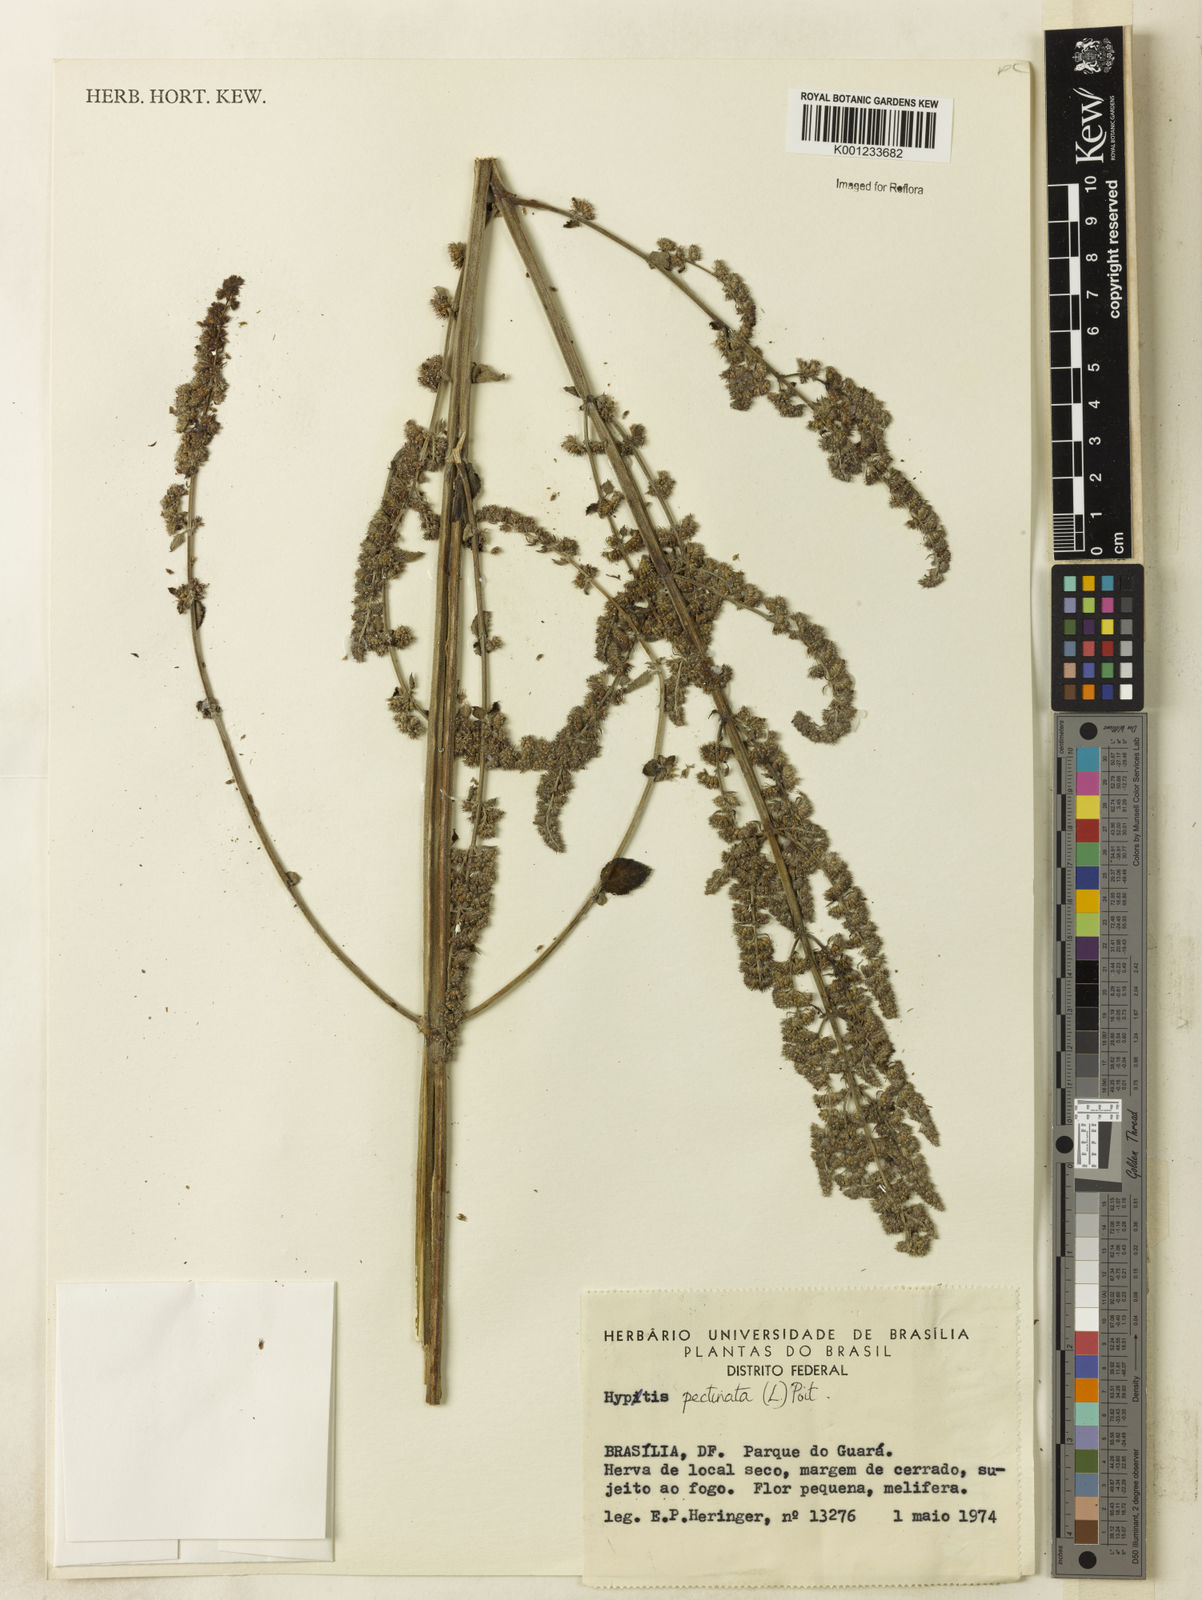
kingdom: Plantae
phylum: Tracheophyta
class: Magnoliopsida
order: Lamiales
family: Lamiaceae
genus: Mesosphaerum
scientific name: Mesosphaerum pectinatum
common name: Comb hyptis
